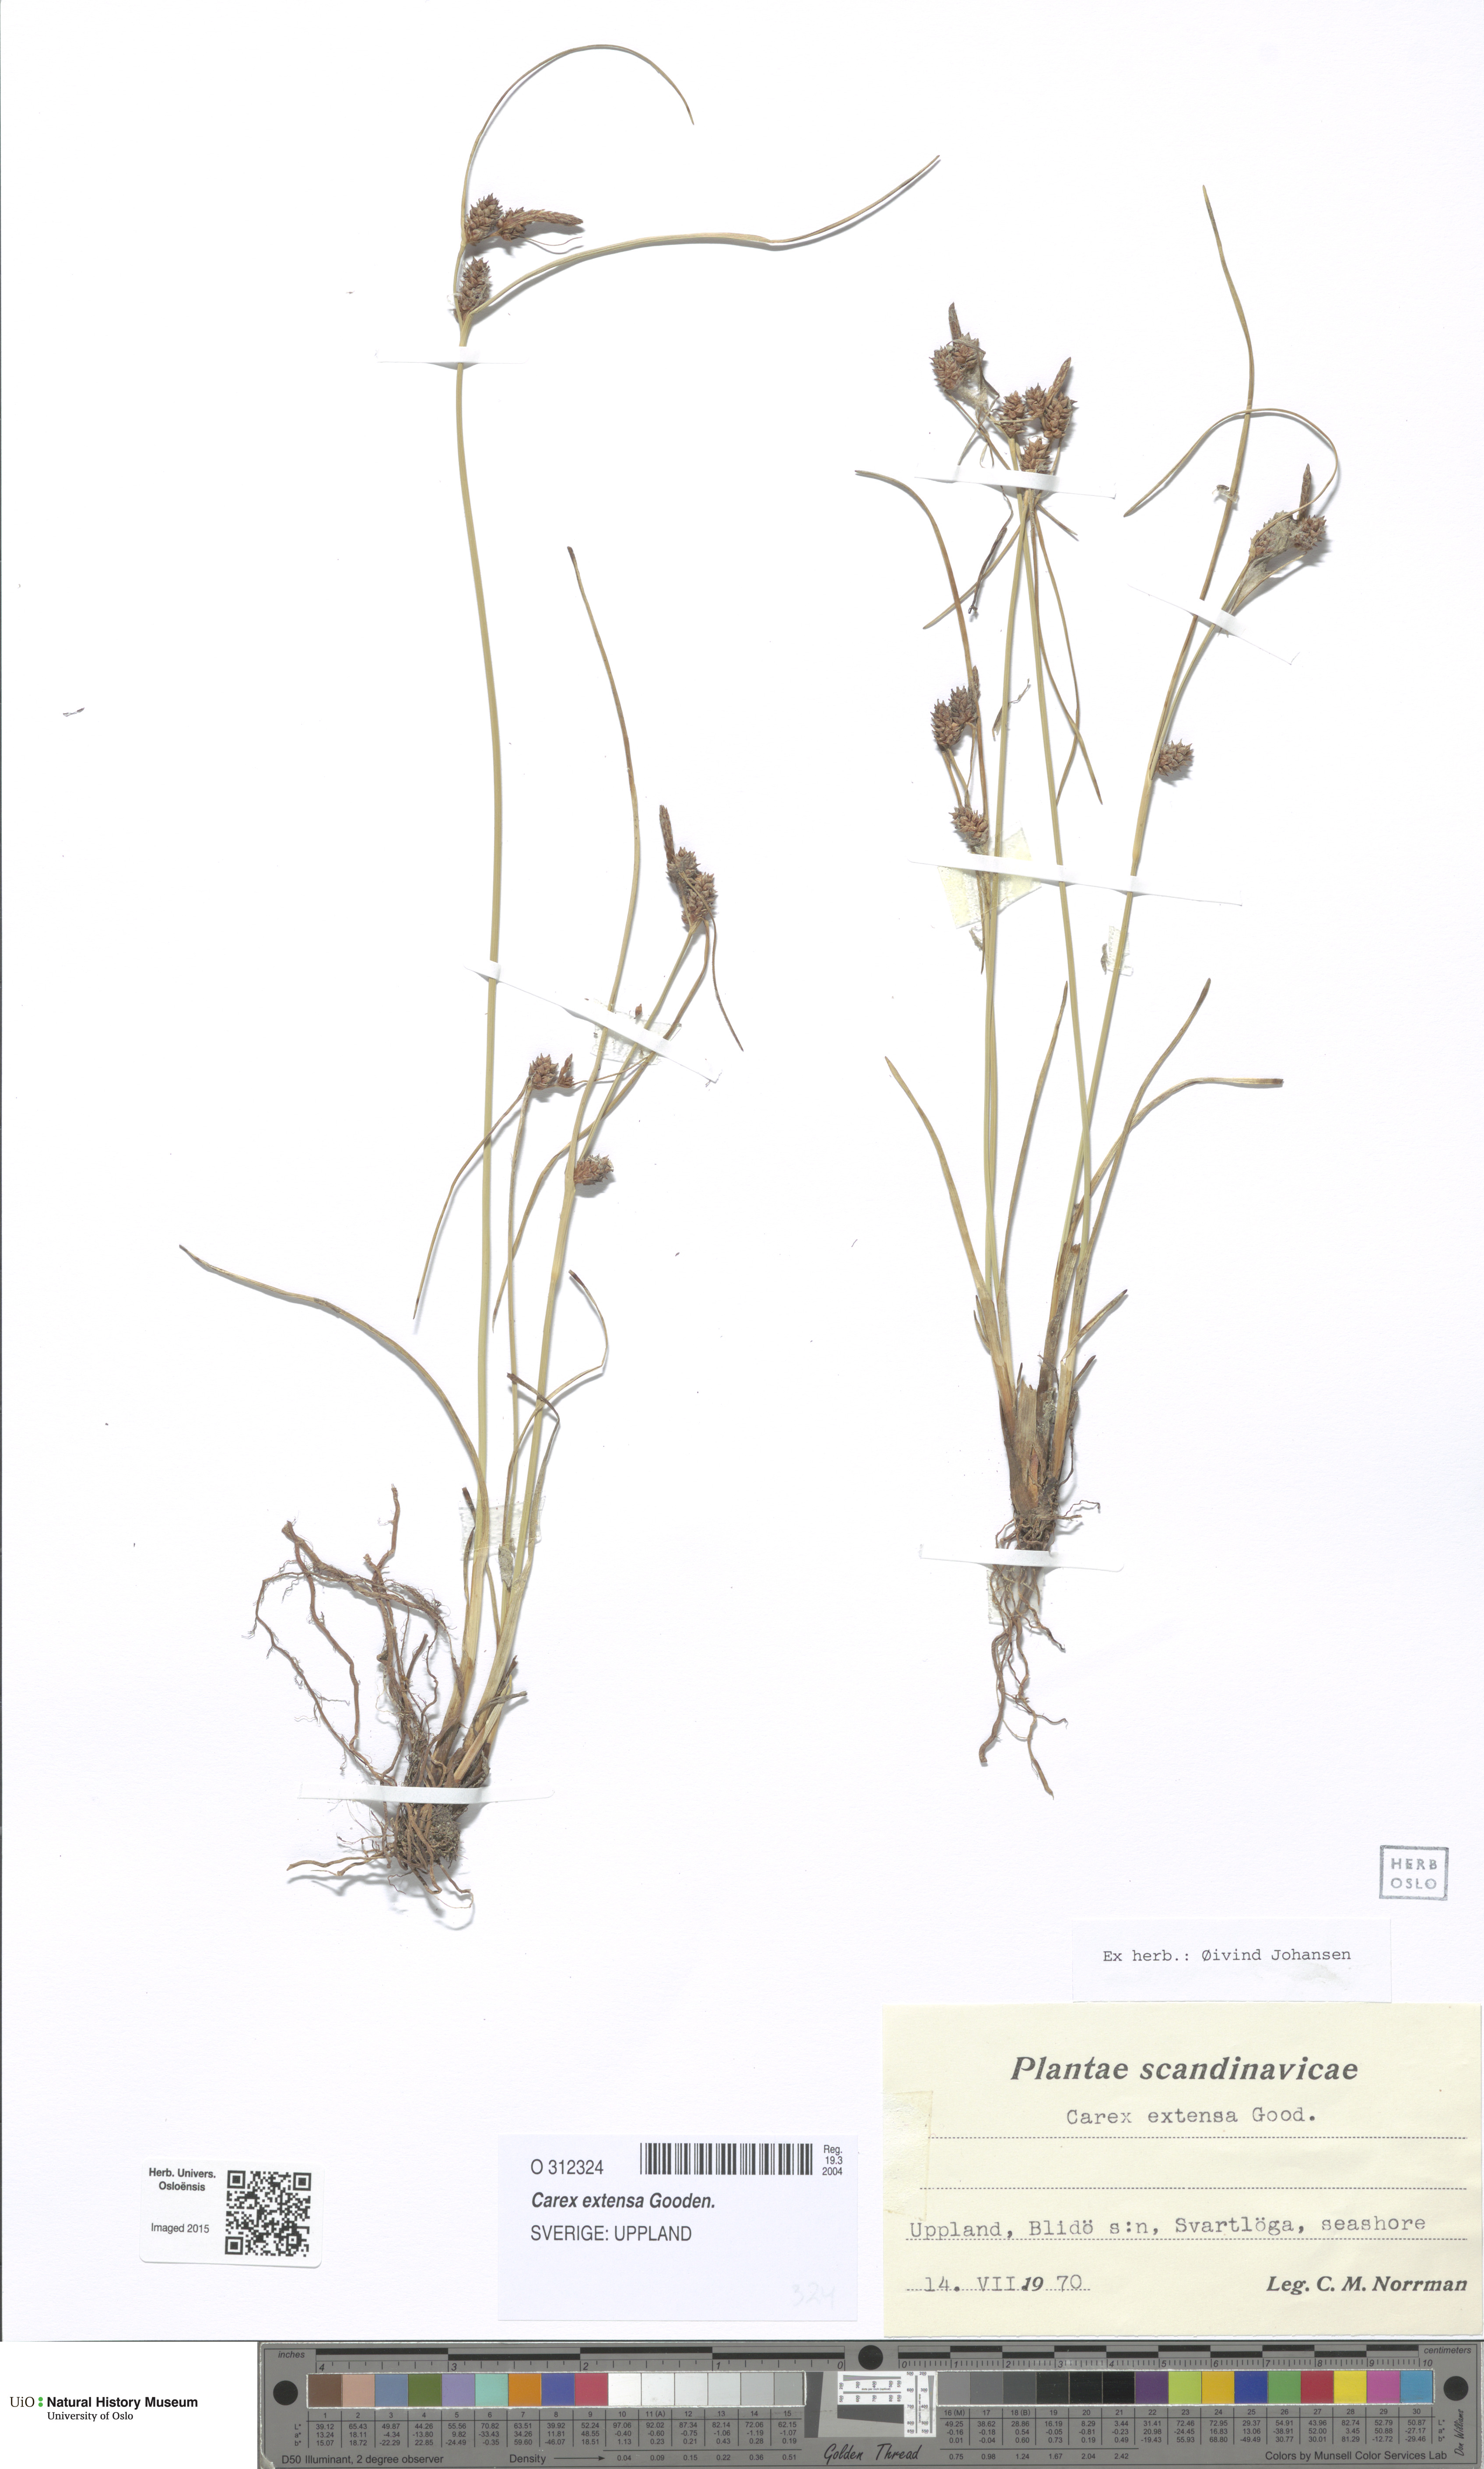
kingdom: Plantae
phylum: Tracheophyta
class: Liliopsida
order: Poales
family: Cyperaceae
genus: Carex
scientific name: Carex extensa
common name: Long-bracted sedge
